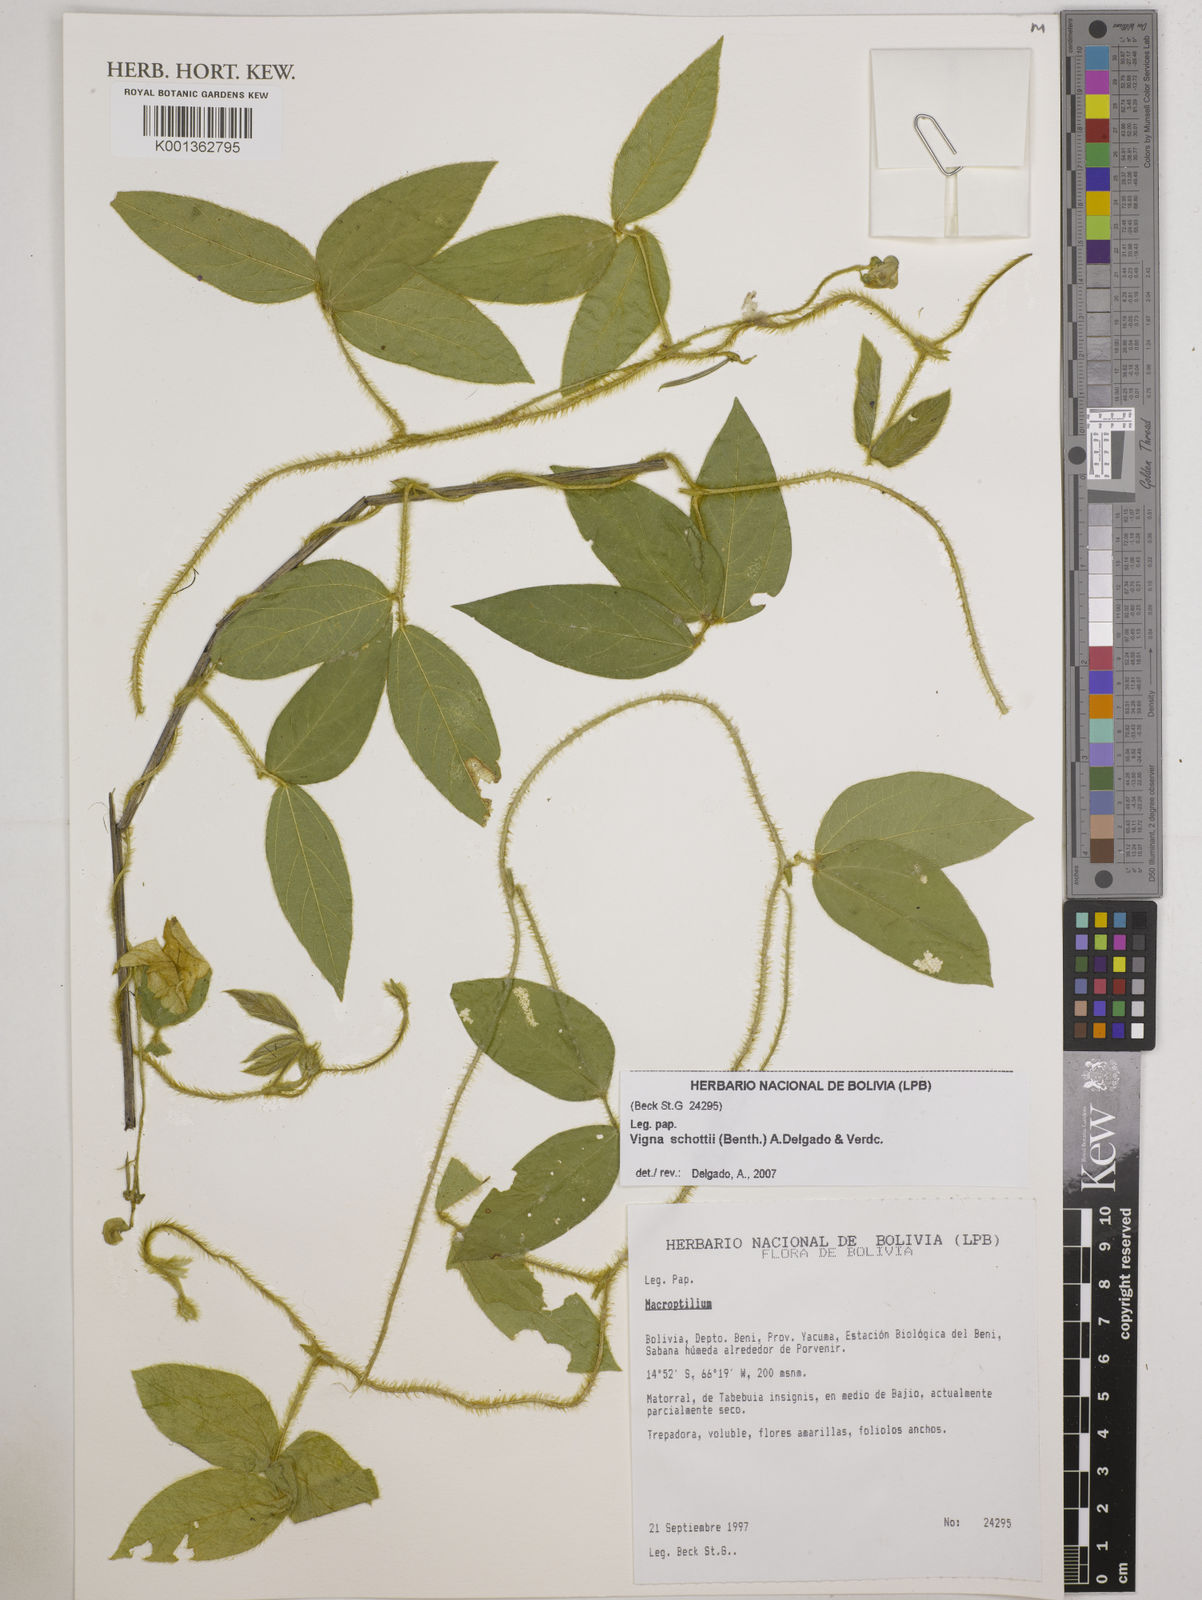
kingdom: Plantae
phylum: Tracheophyta
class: Magnoliopsida
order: Fabales
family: Fabaceae
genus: Vigna
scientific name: Vigna
